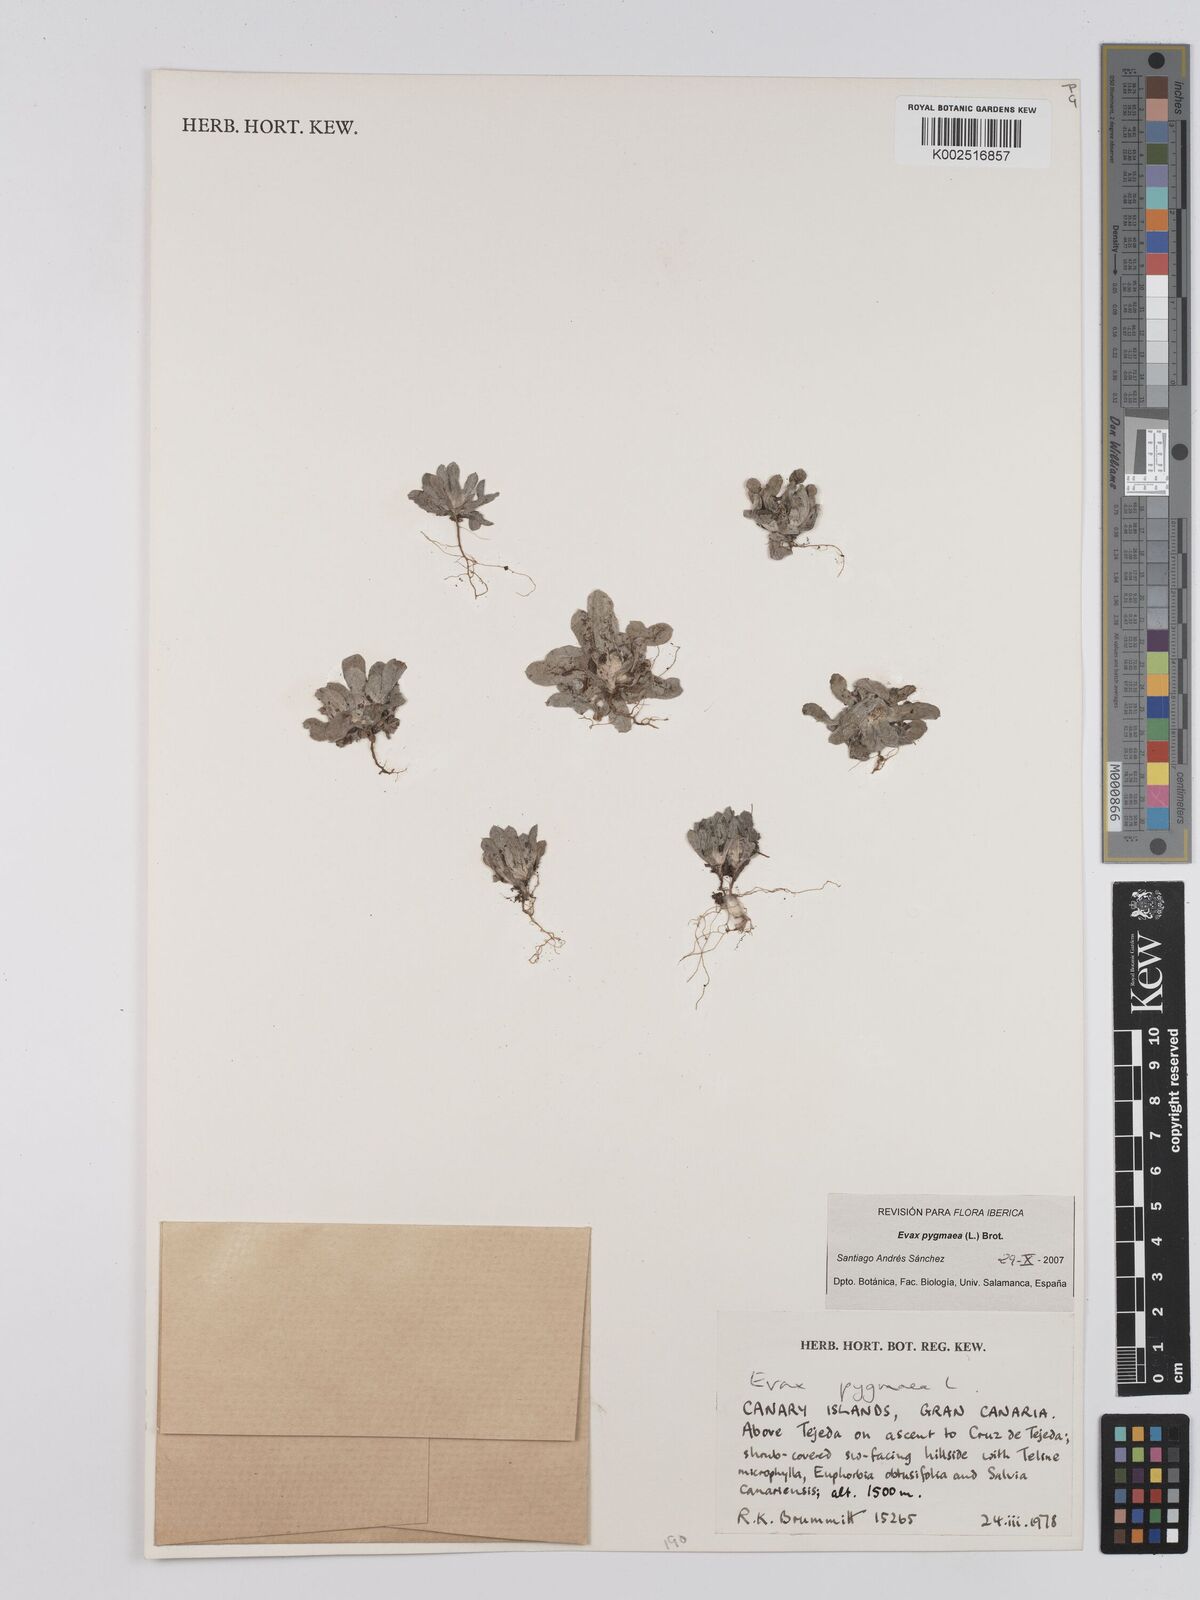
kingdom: Plantae
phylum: Tracheophyta
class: Magnoliopsida
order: Asterales
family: Asteraceae
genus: Filago
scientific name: Filago pygmaea
